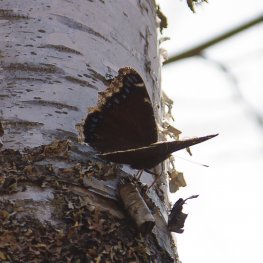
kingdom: Animalia
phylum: Arthropoda
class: Insecta
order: Lepidoptera
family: Nymphalidae
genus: Nymphalis
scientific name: Nymphalis antiopa
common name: Mourning Cloak
